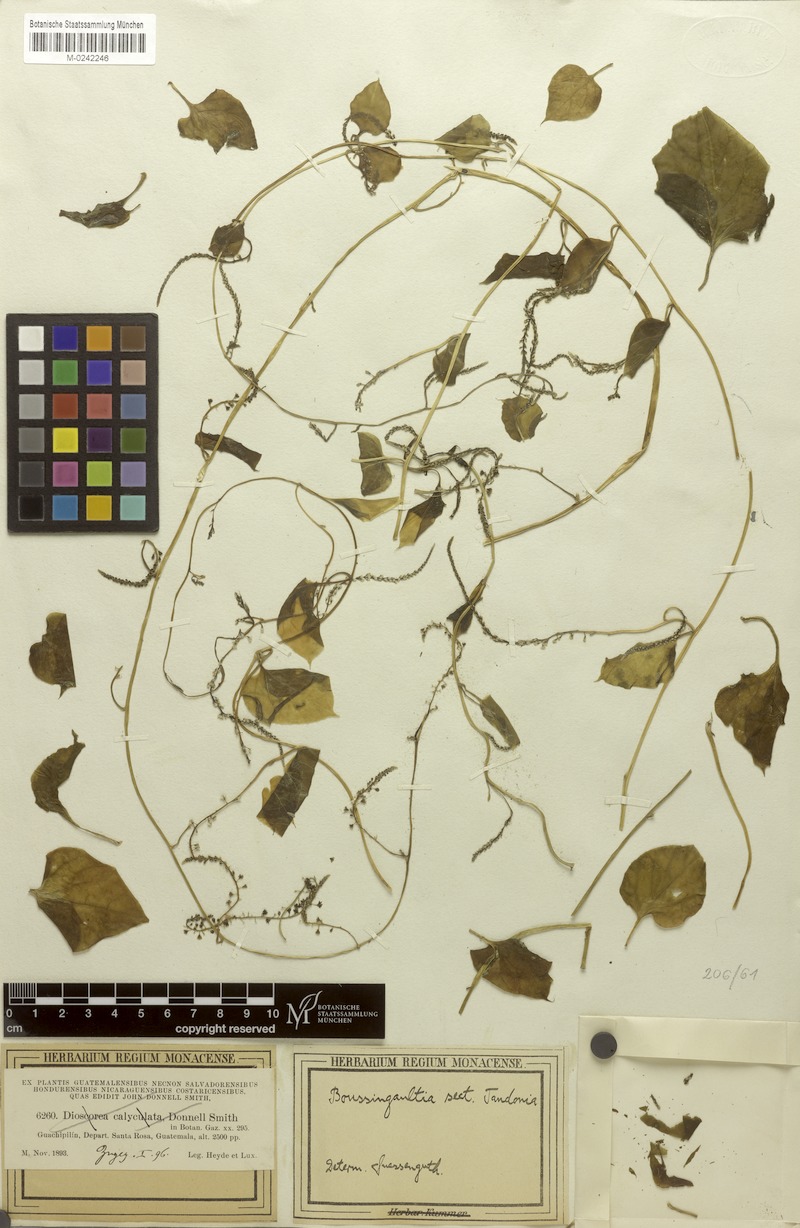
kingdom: Plantae
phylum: Tracheophyta
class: Magnoliopsida
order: Caryophyllales
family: Basellaceae
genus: Anredera
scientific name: Anredera ramosa
